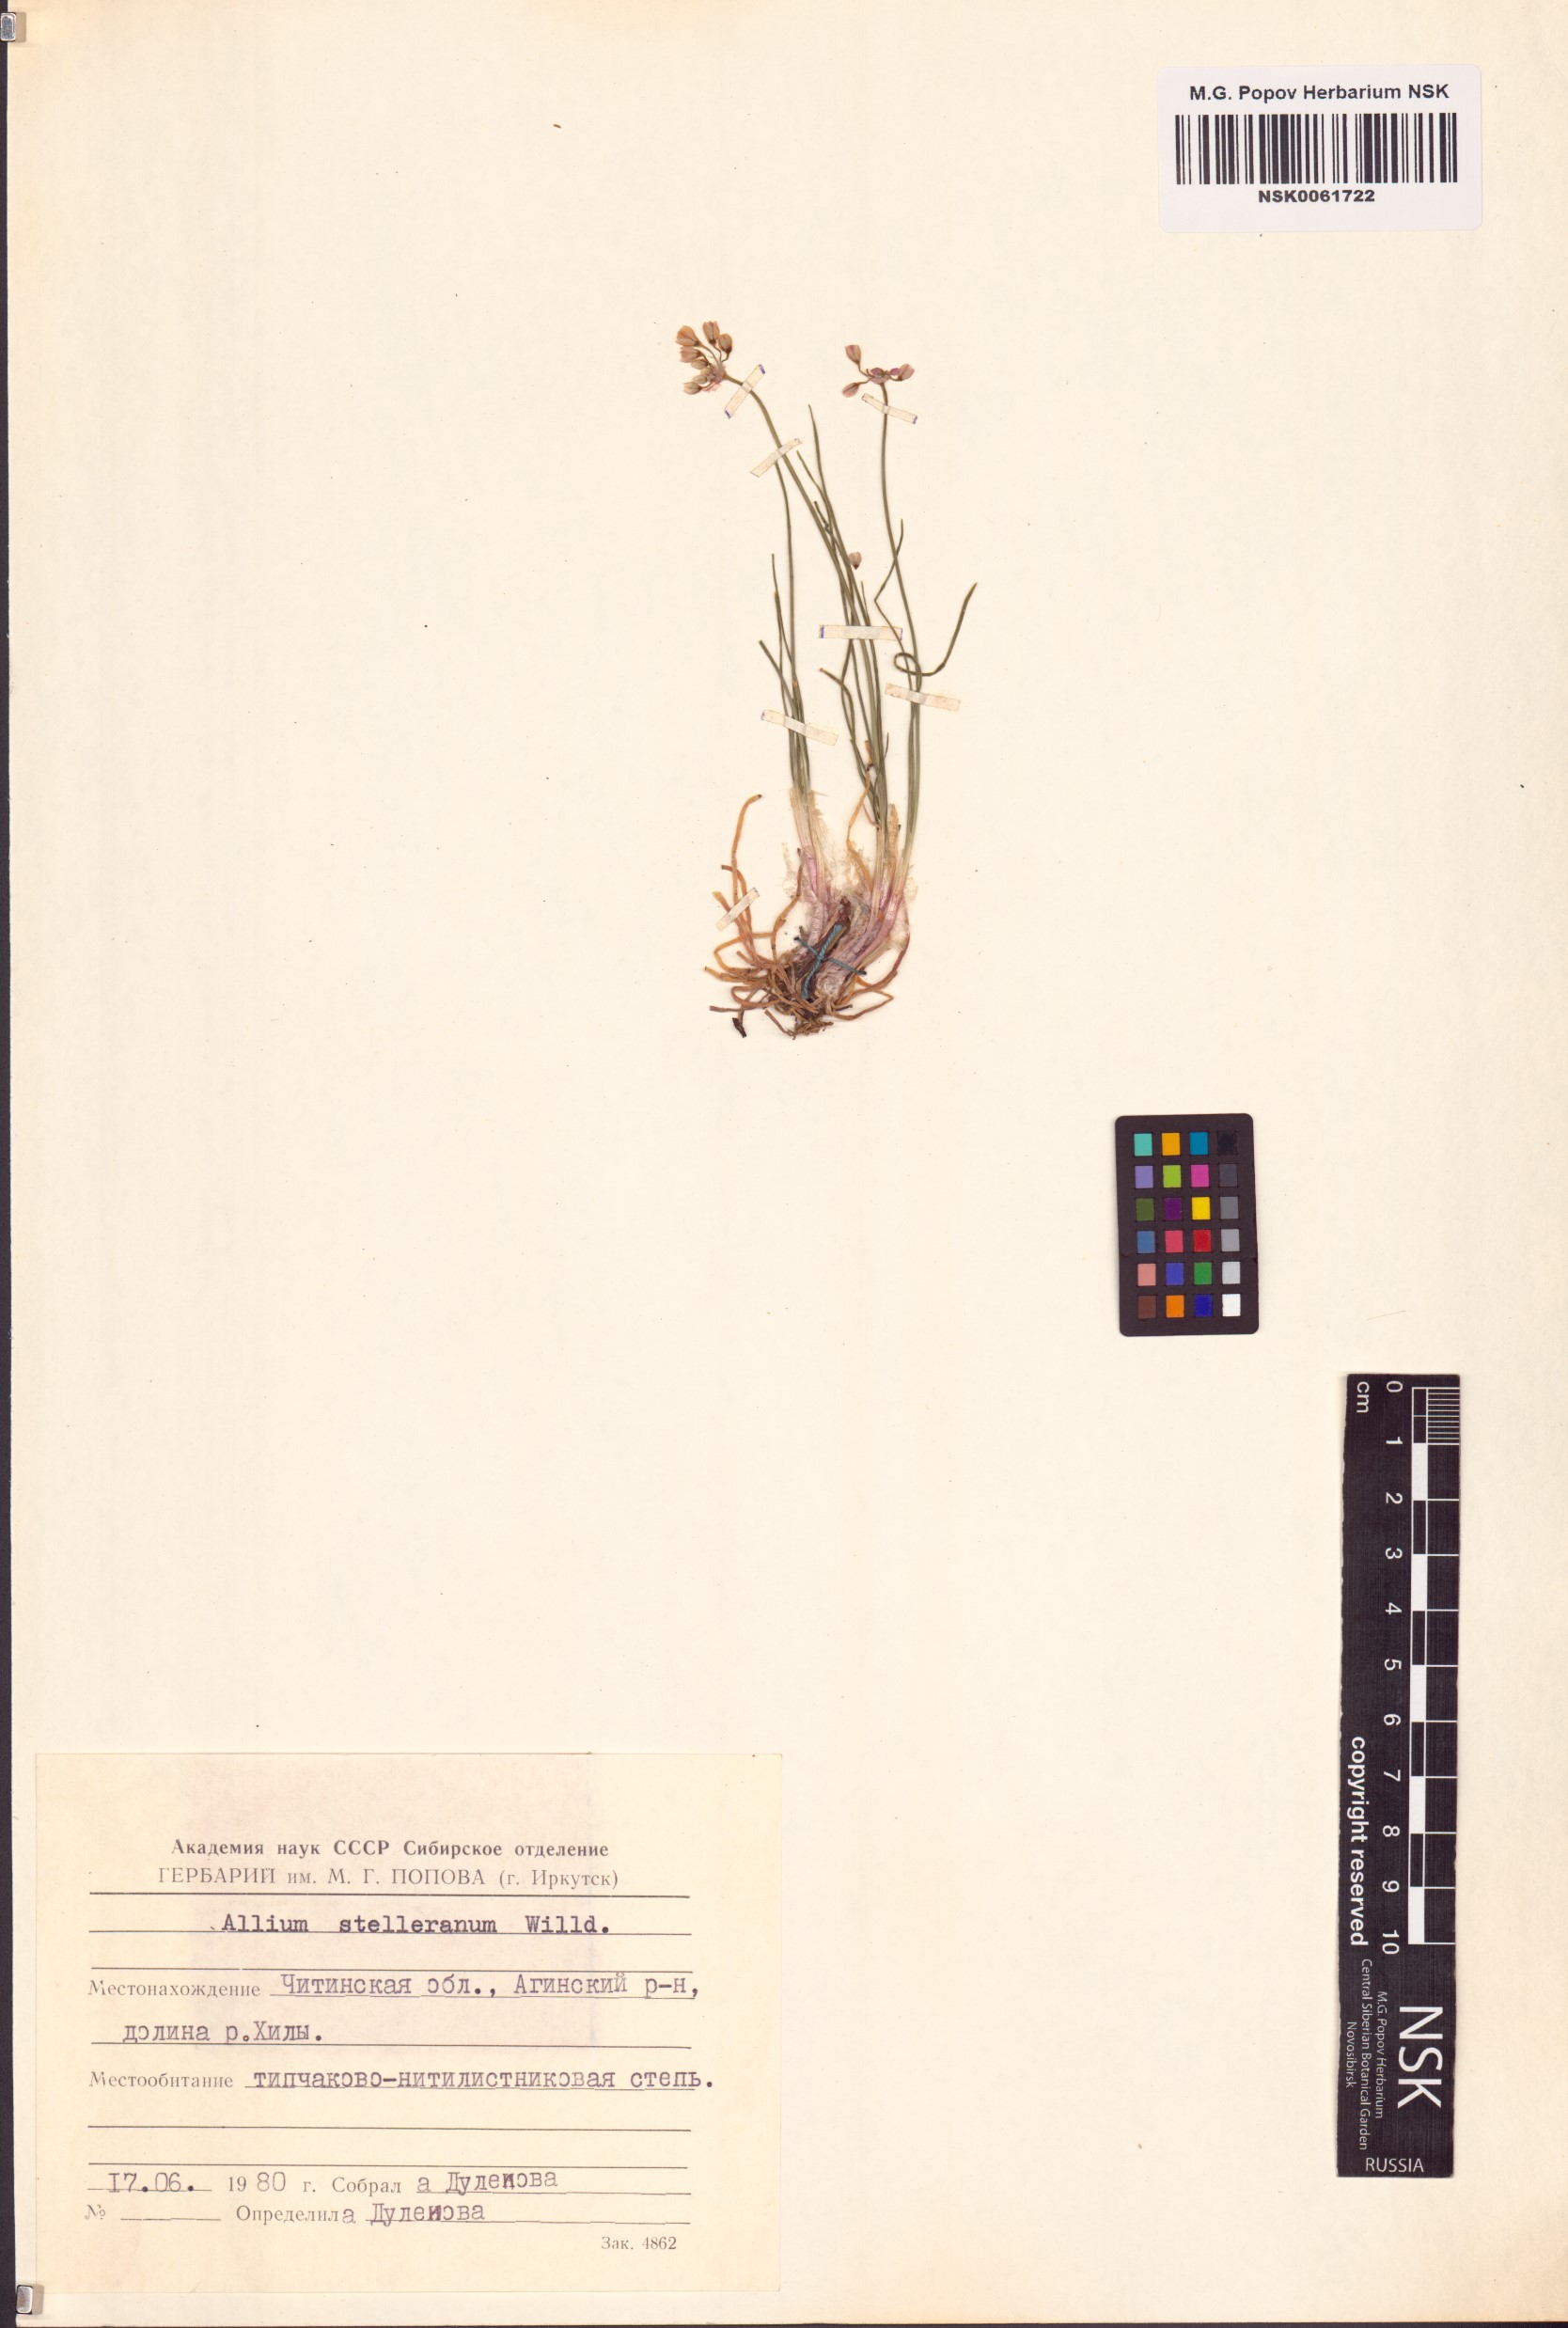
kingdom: Plantae
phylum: Tracheophyta
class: Liliopsida
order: Asparagales
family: Amaryllidaceae
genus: Allium
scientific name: Allium stellerianum
